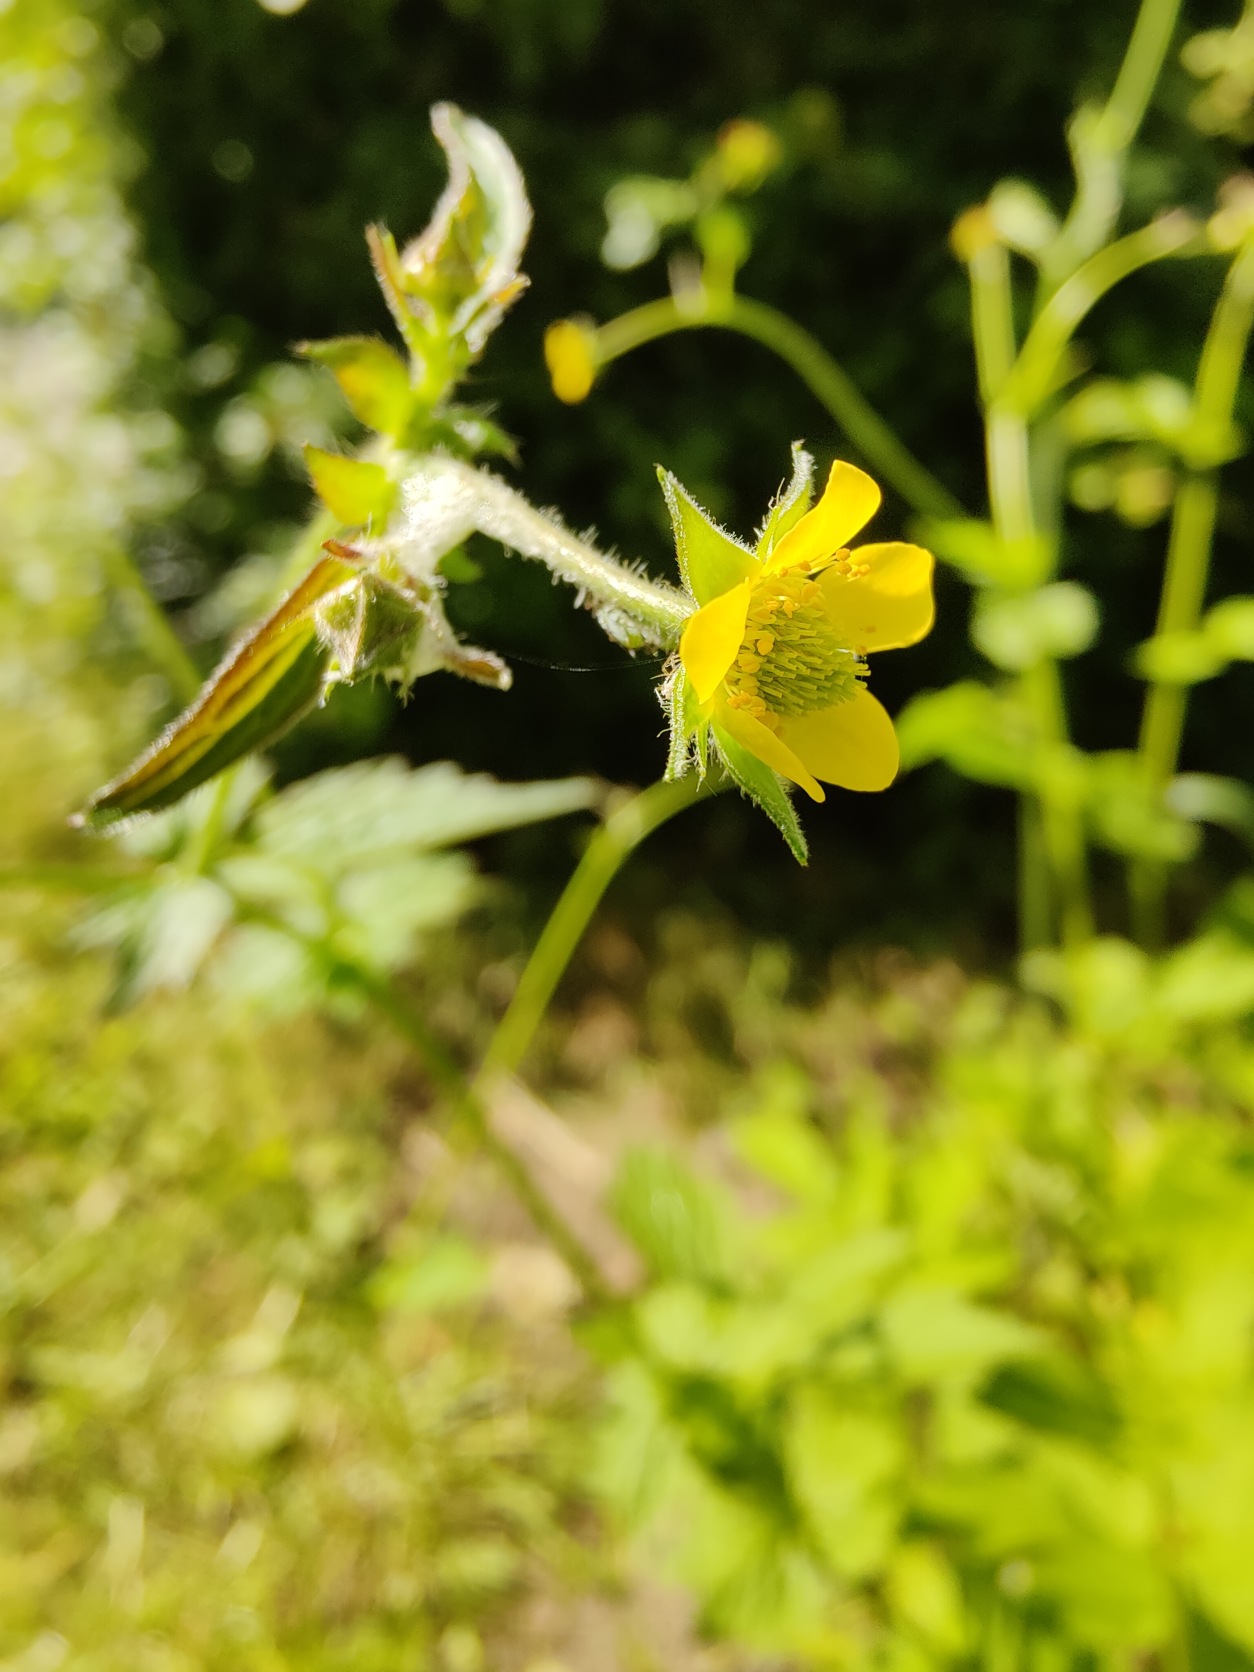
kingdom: Plantae
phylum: Tracheophyta
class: Magnoliopsida
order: Rosales
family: Rosaceae
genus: Geum
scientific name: Geum urbanum
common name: Feber-nellikerod
